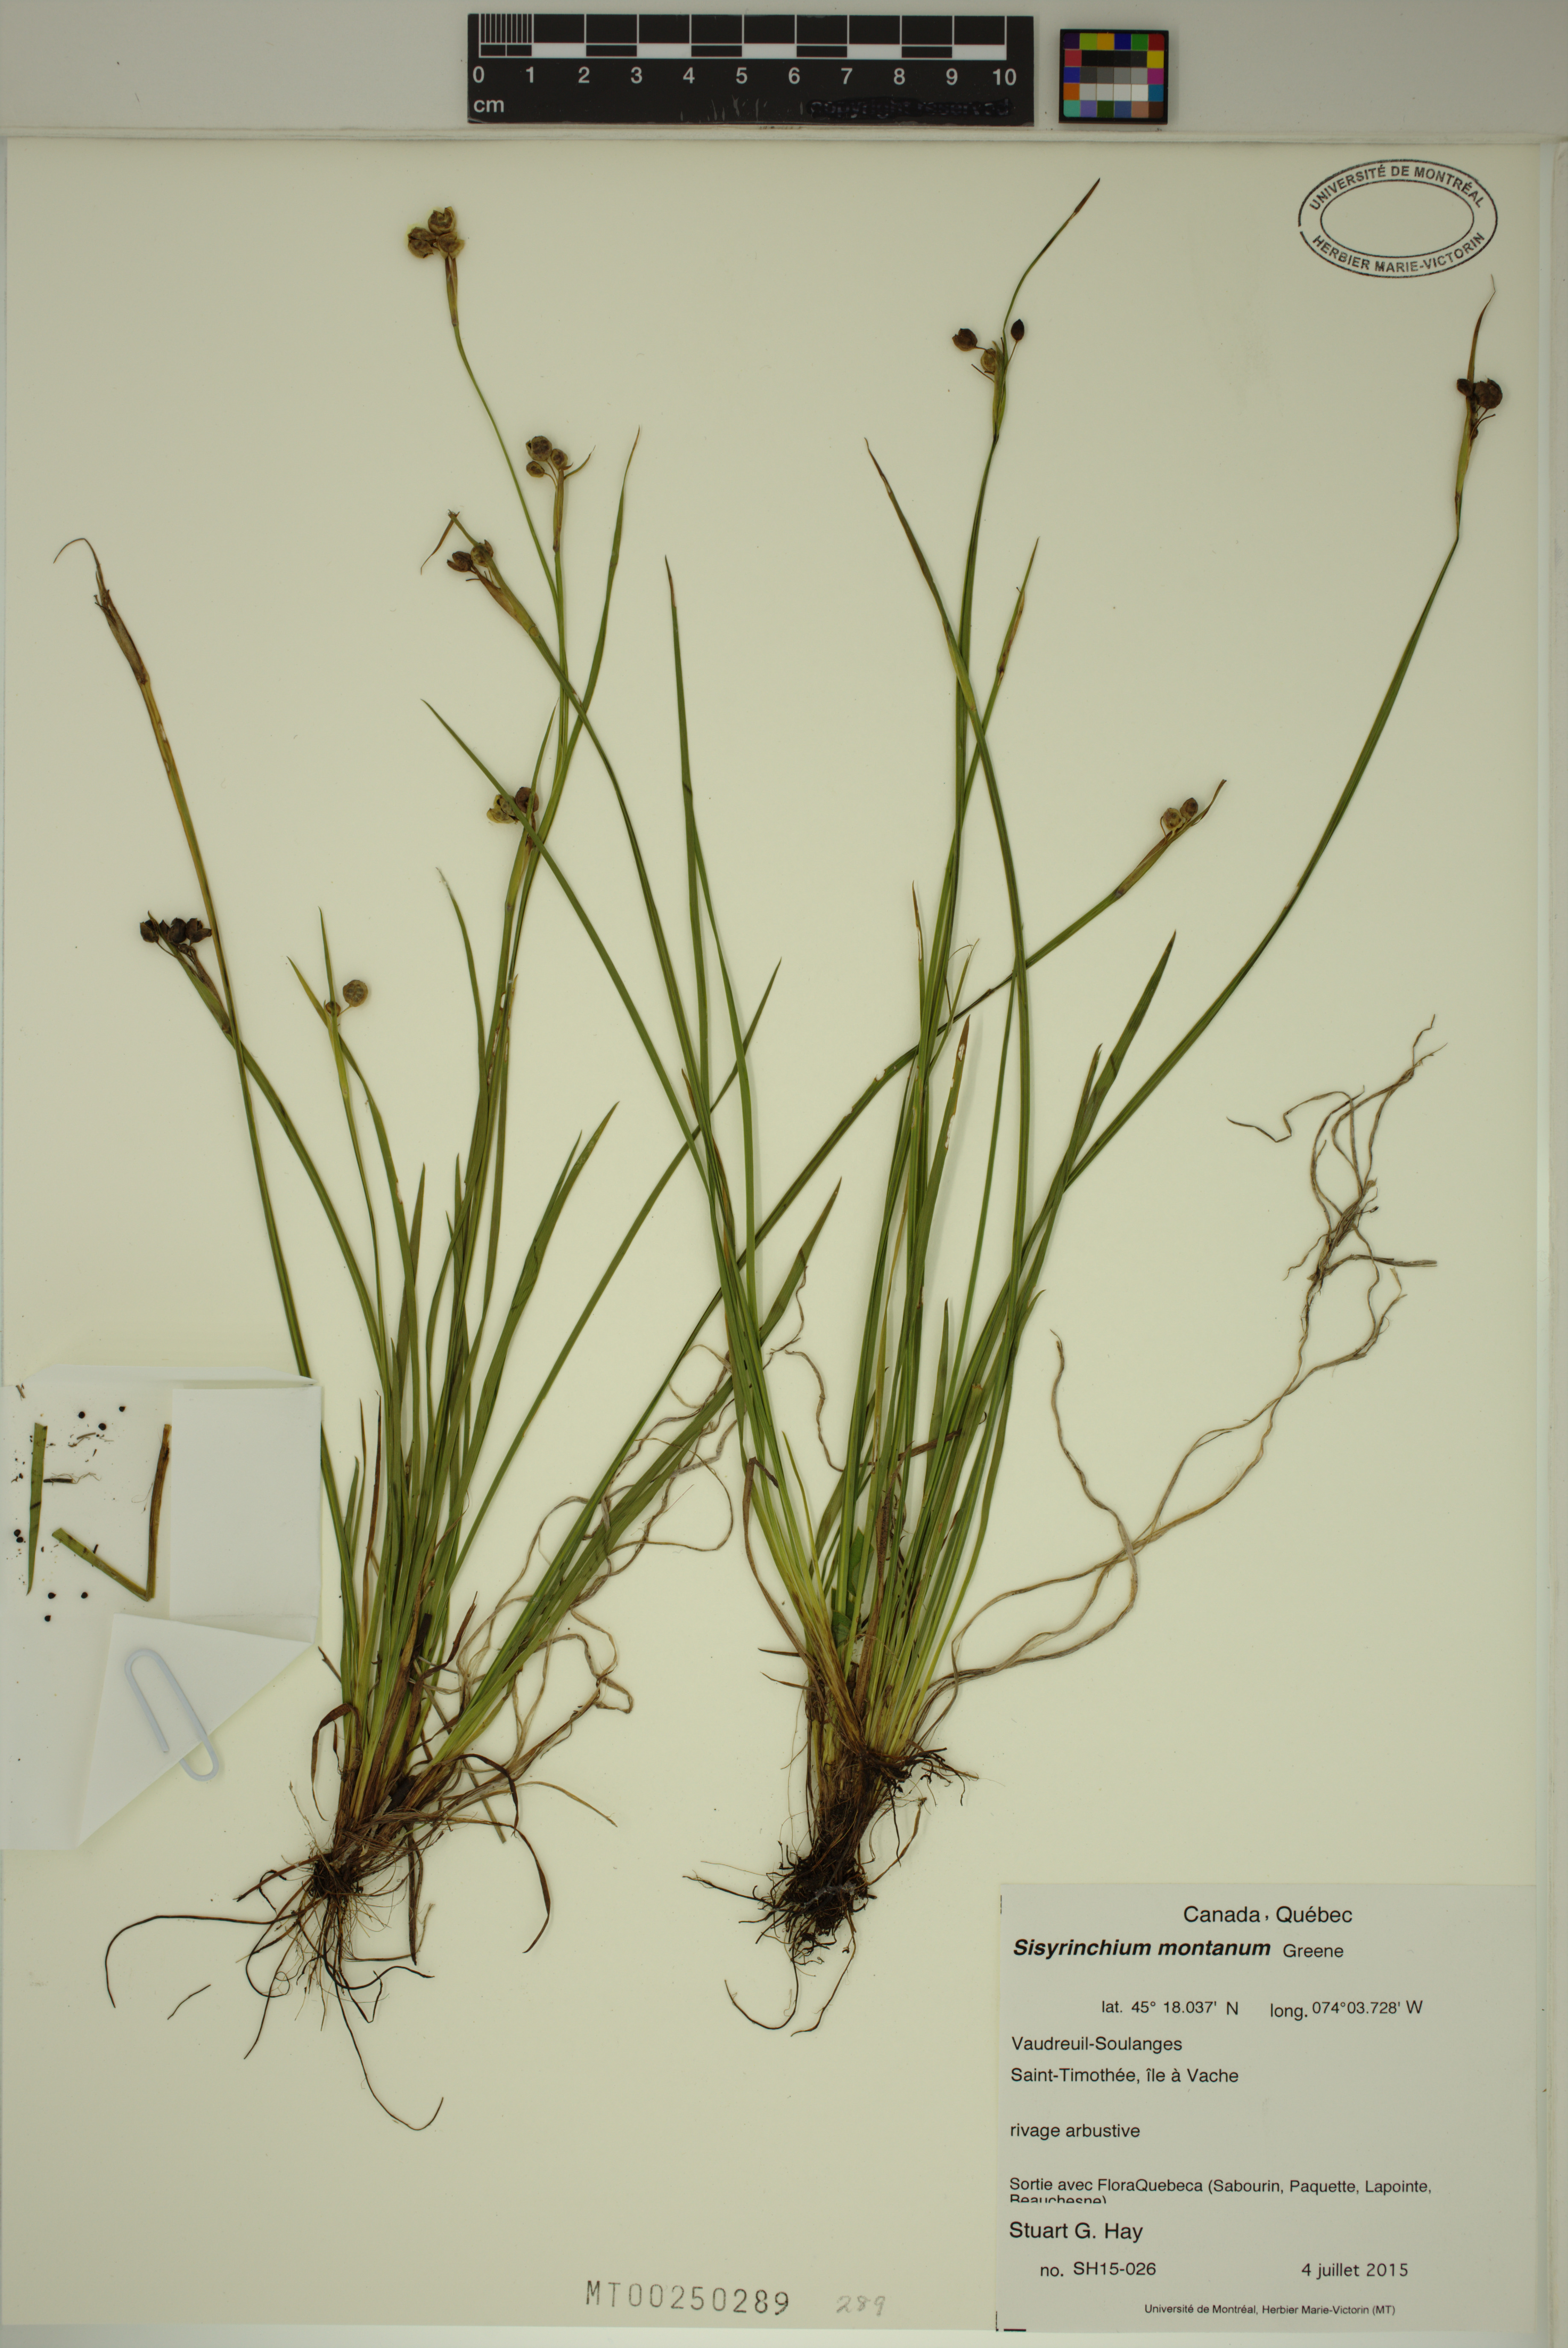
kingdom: Plantae
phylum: Tracheophyta
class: Liliopsida
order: Asparagales
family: Iridaceae
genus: Sisyrinchium
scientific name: Sisyrinchium montanum
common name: American blue-eyed-grass
